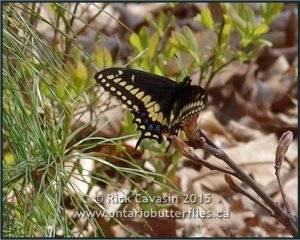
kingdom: Animalia
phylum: Arthropoda
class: Insecta
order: Lepidoptera
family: Papilionidae
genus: Papilio
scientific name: Papilio polyxenes
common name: Black Swallowtail
